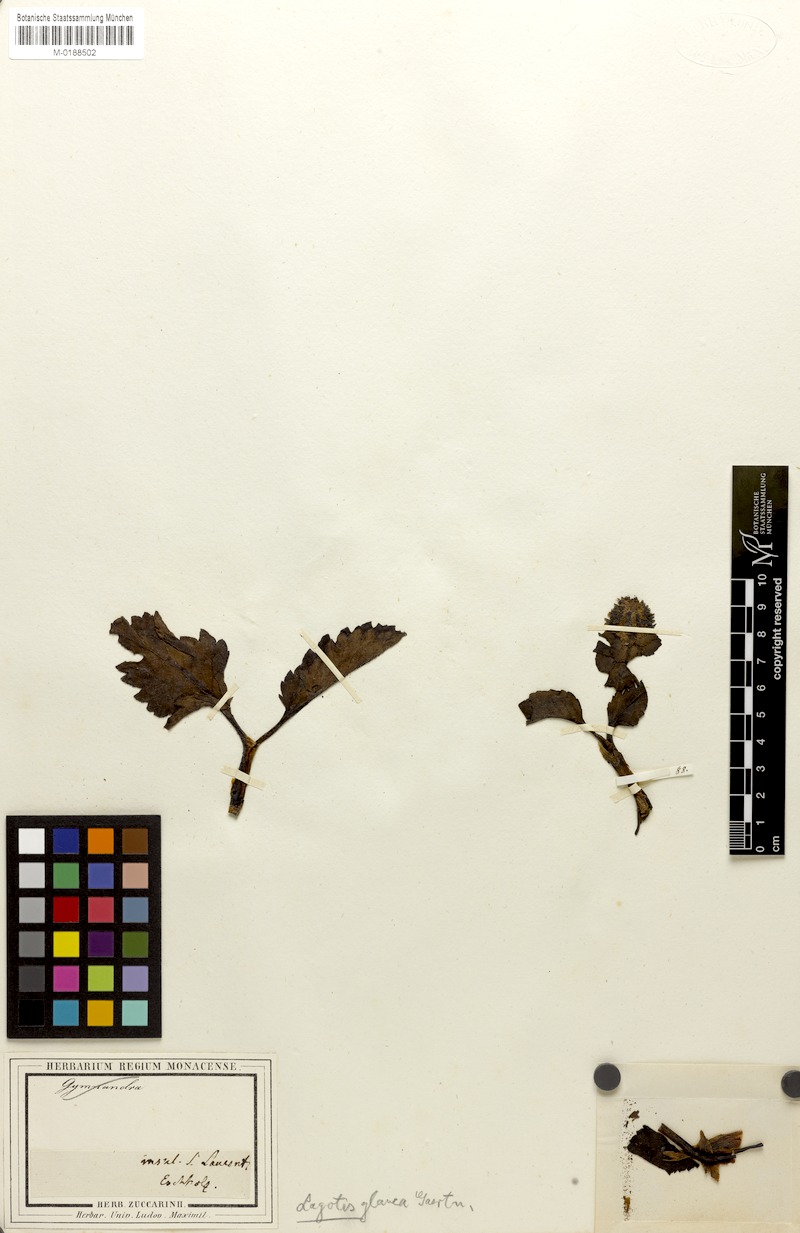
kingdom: Plantae
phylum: Tracheophyta
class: Magnoliopsida
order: Lamiales
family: Plantaginaceae
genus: Lagotis
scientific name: Lagotis glauca
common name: Glaucous weaselsnout
